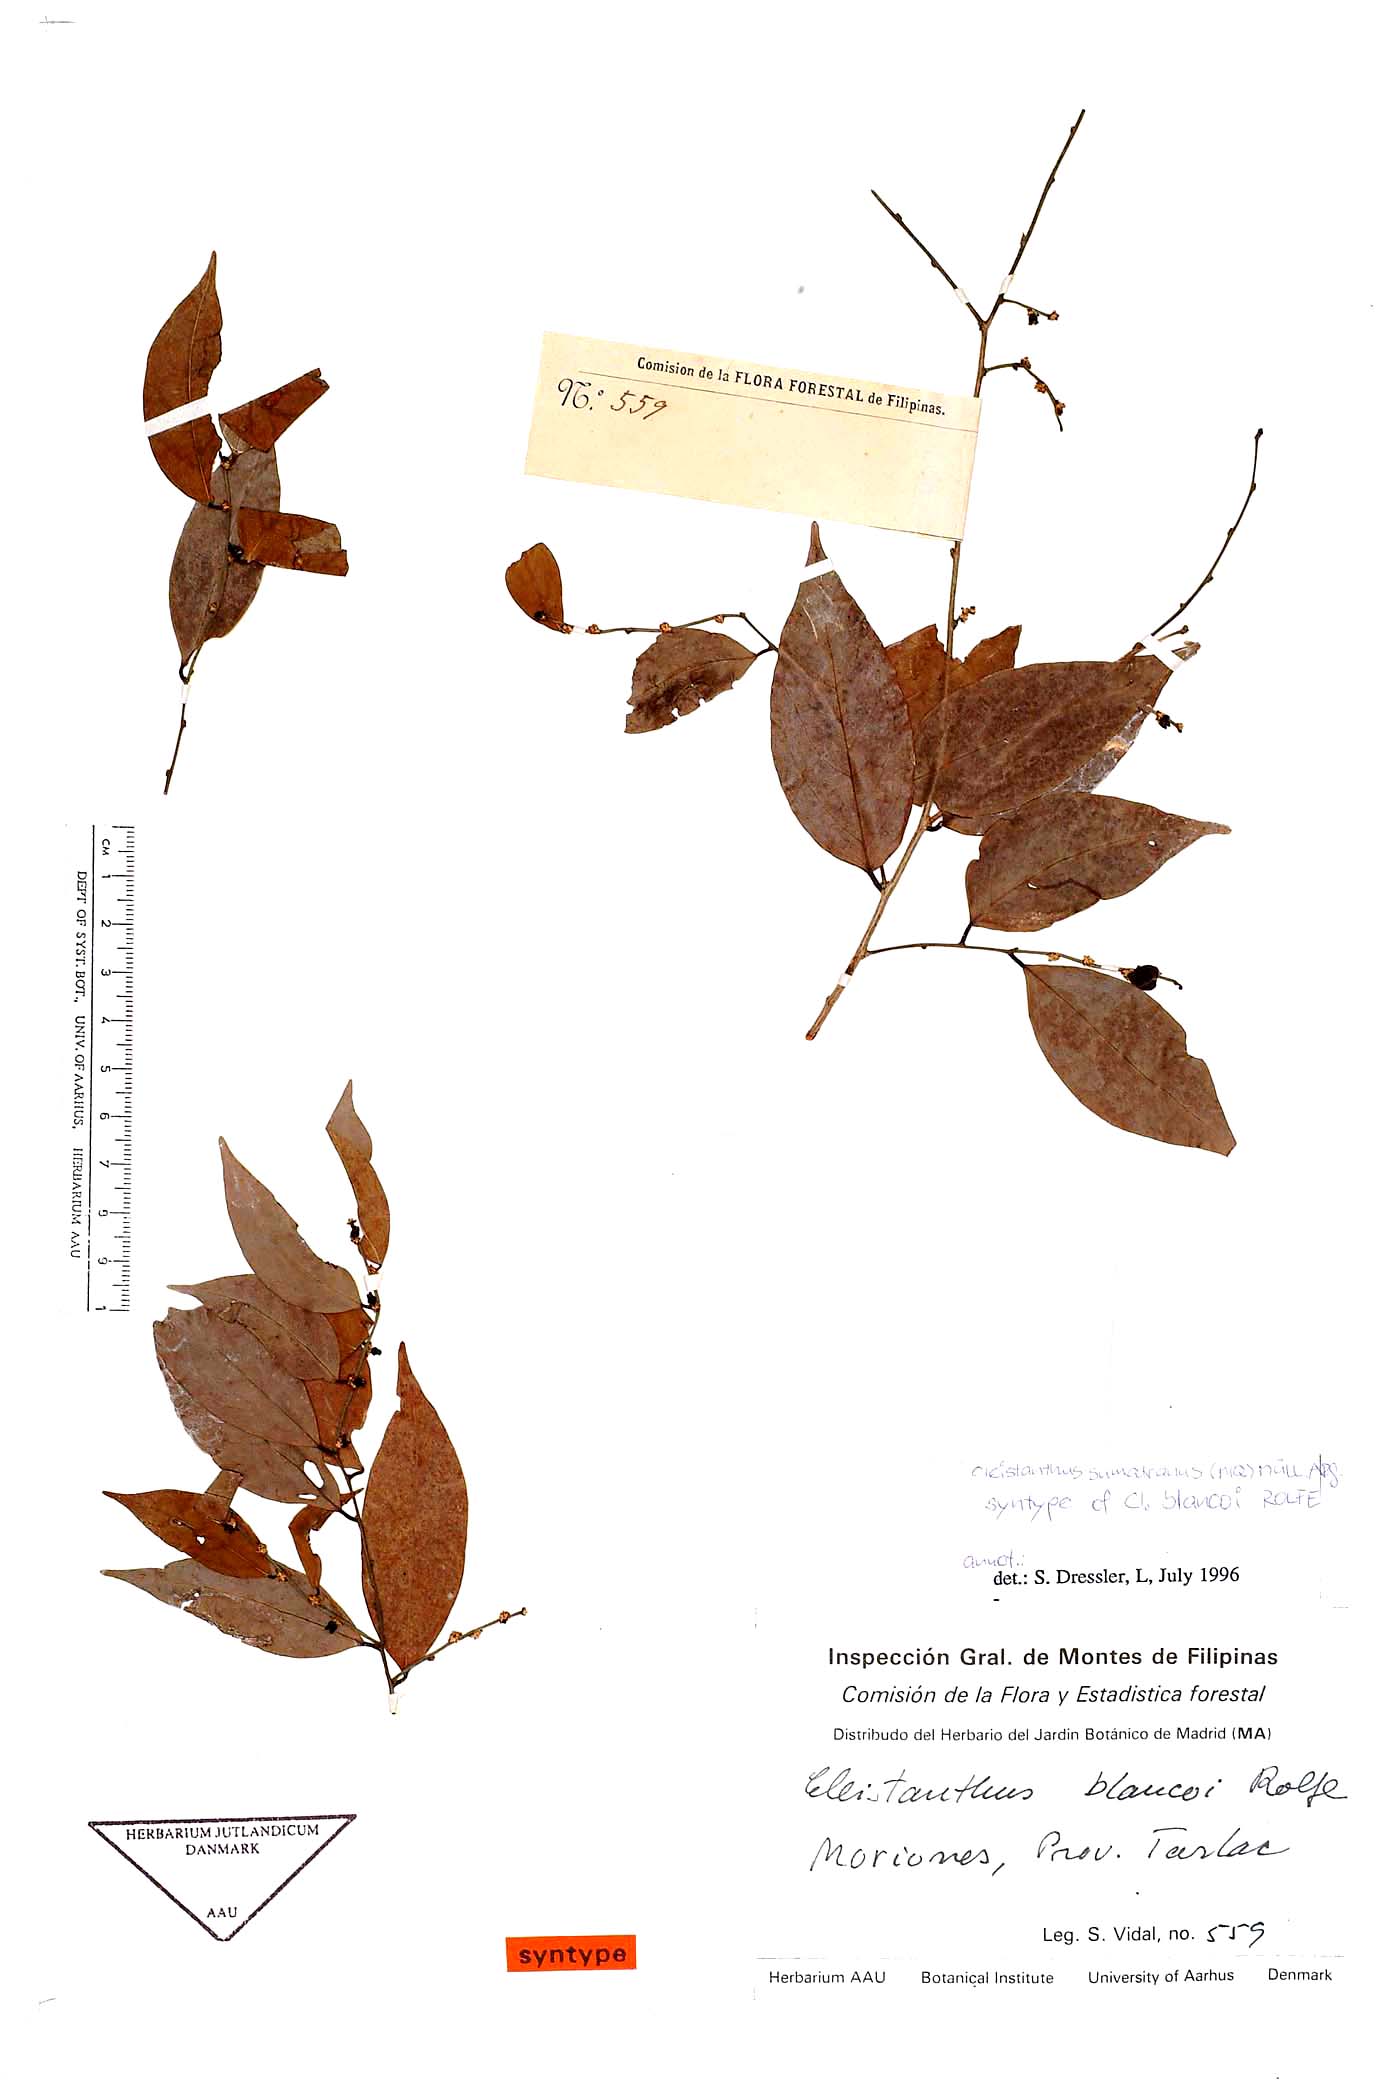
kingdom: Plantae
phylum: Tracheophyta
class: Magnoliopsida
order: Malpighiales
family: Phyllanthaceae
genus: Cleistanthus
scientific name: Cleistanthus sumatranus
